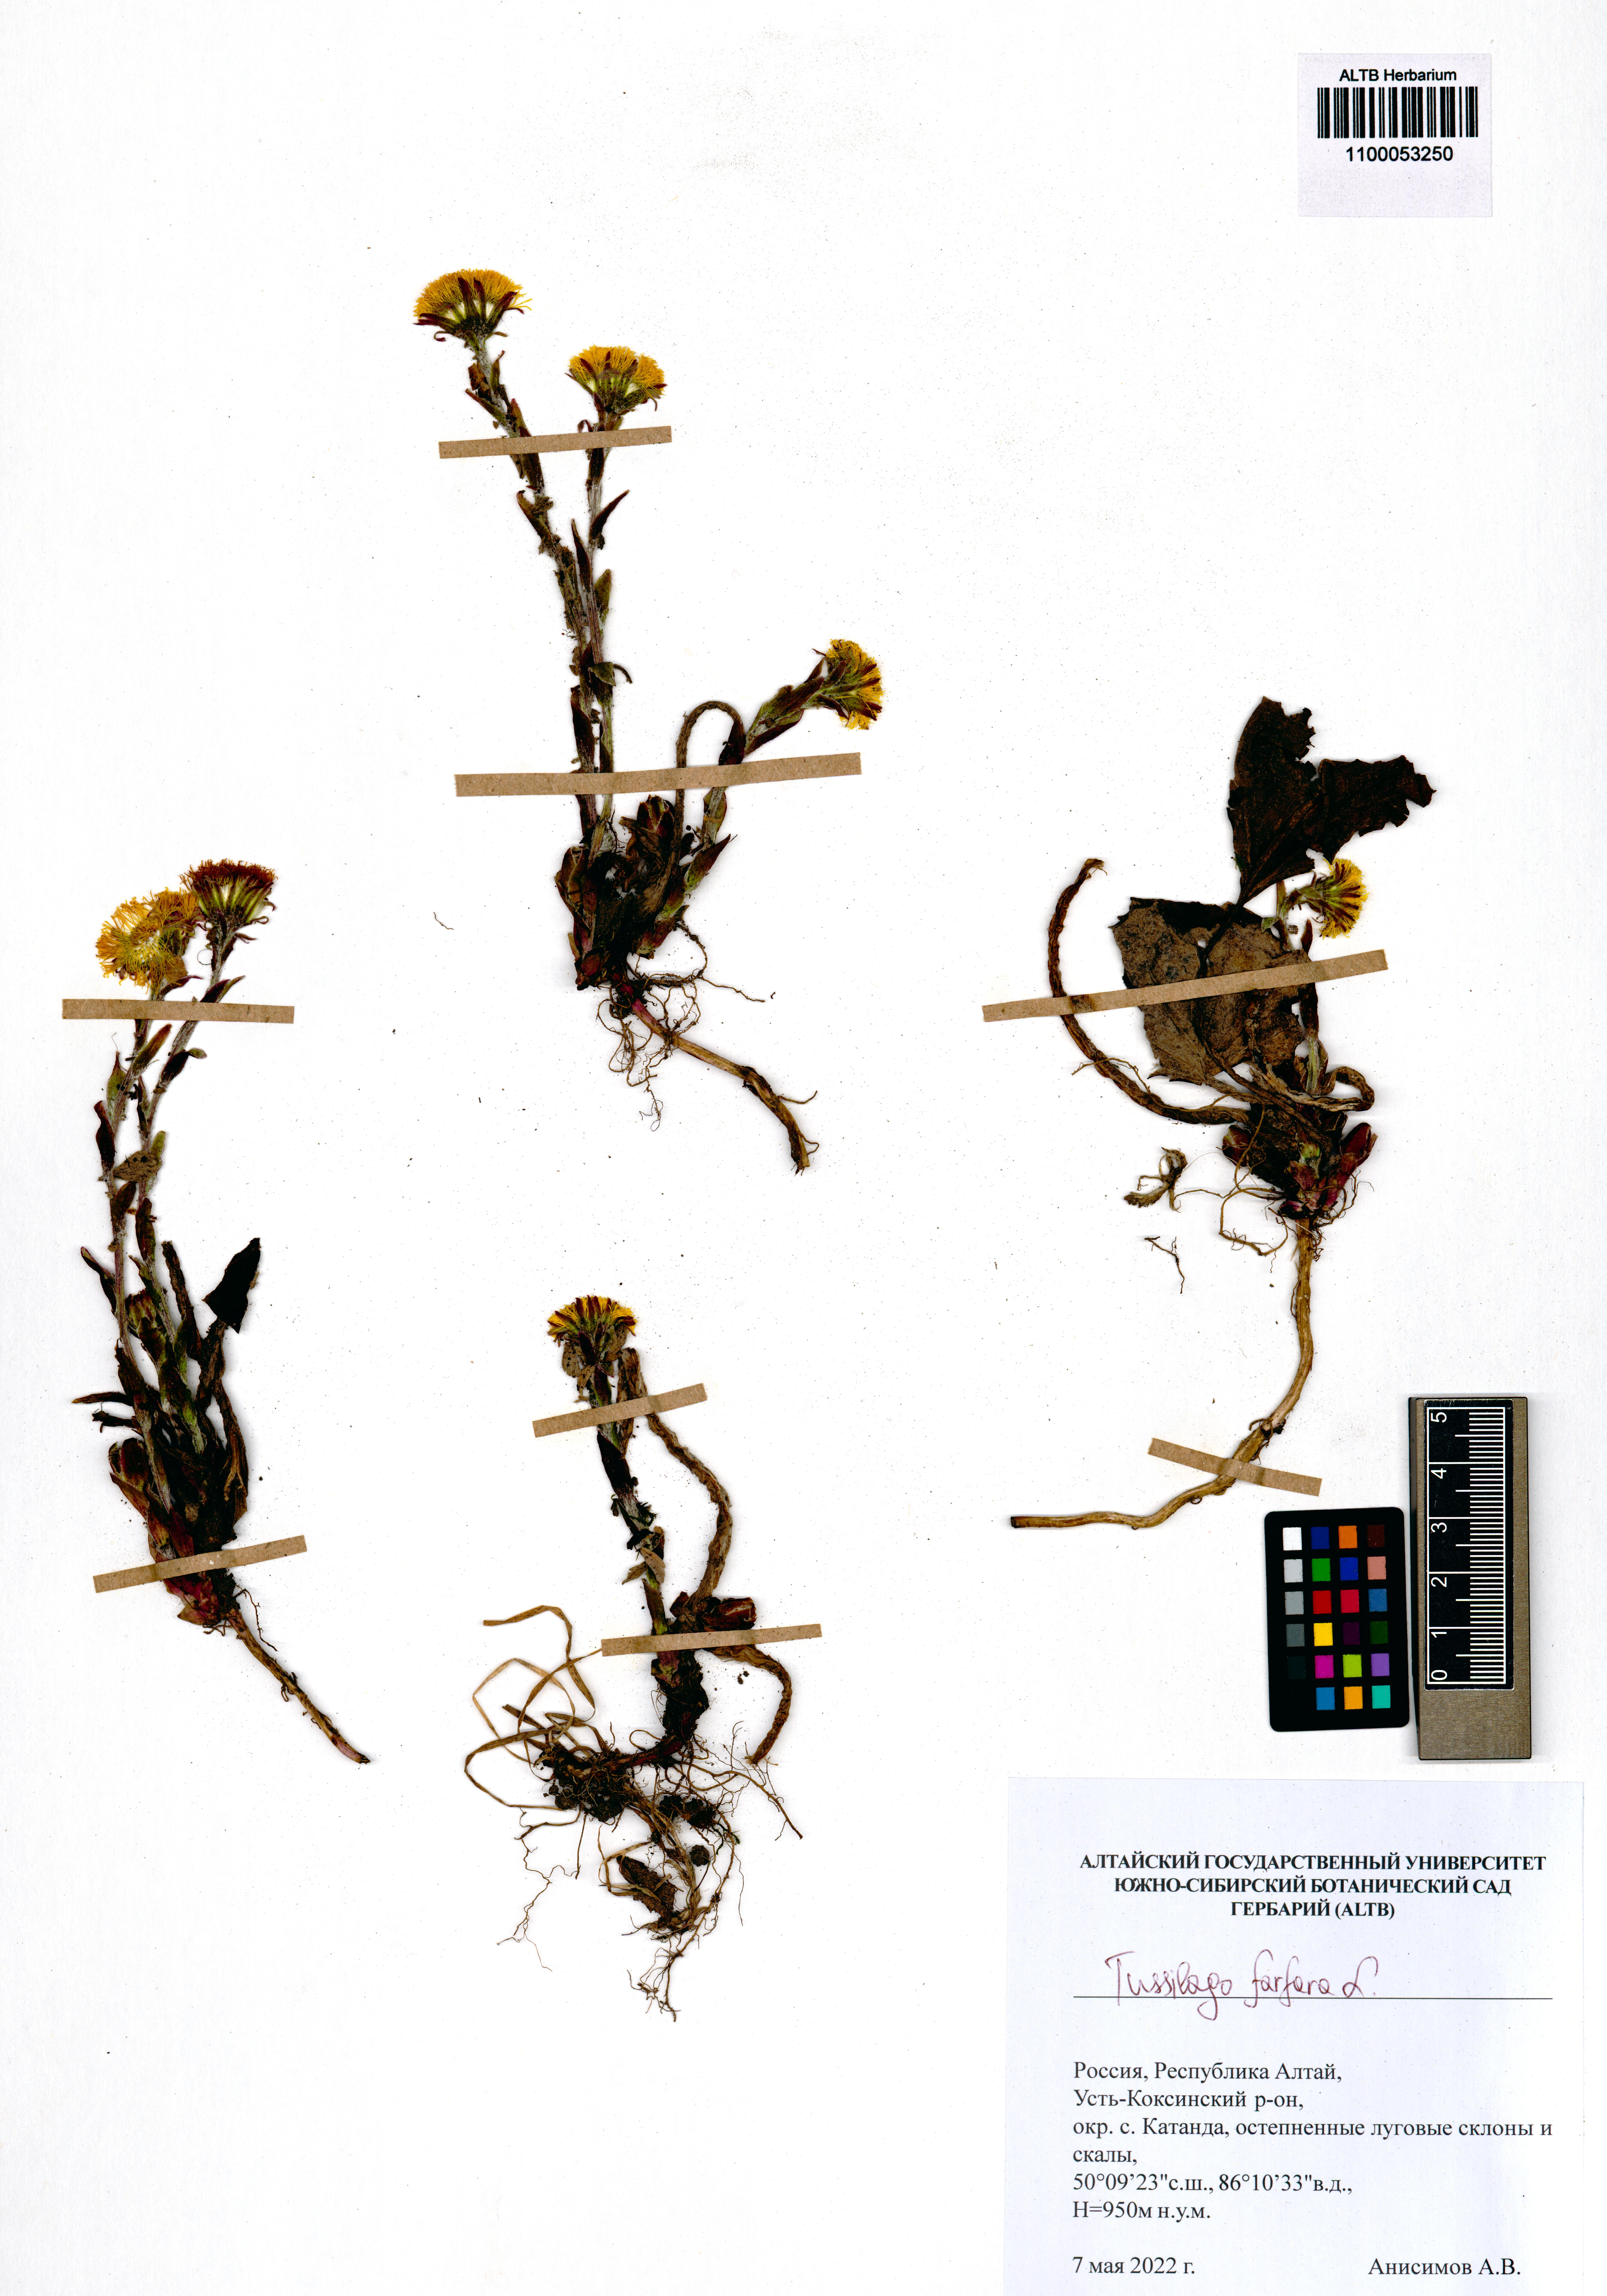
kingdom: Plantae
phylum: Tracheophyta
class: Magnoliopsida
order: Asterales
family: Asteraceae
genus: Tussilago
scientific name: Tussilago farfara
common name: Coltsfoot
